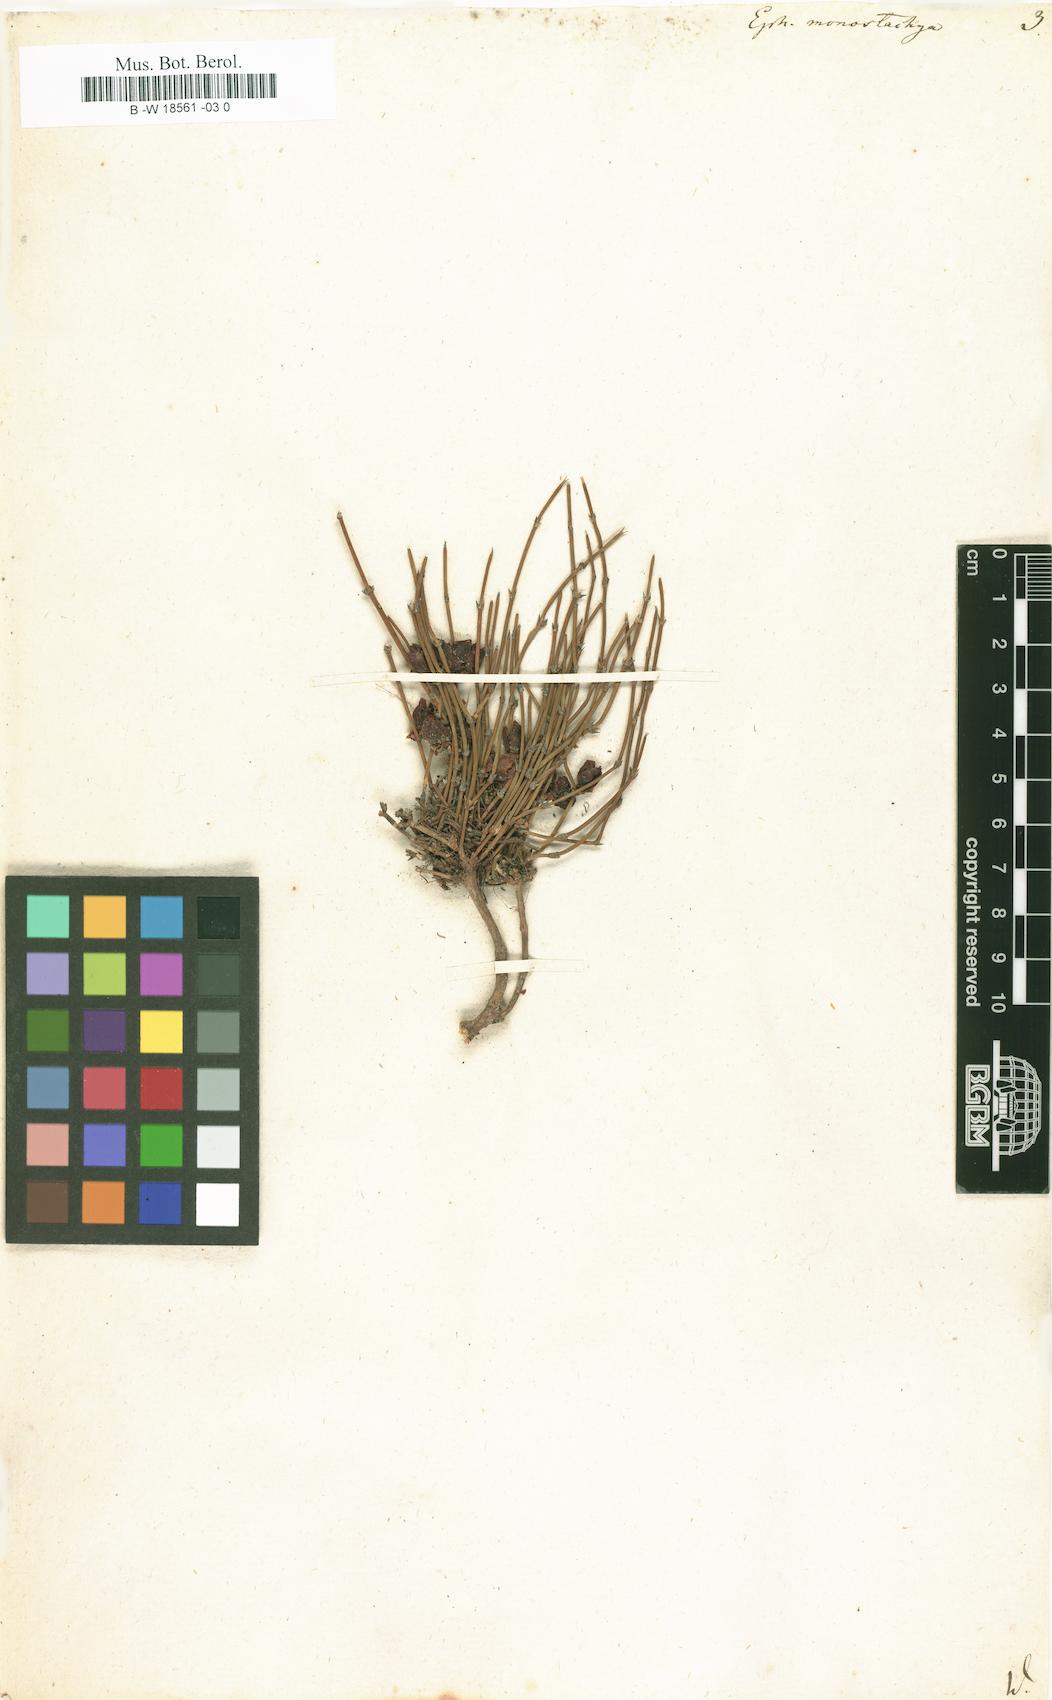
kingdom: Plantae
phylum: Tracheophyta
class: Gnetopsida
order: Ephedrales
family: Ephedraceae
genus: Ephedra
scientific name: Ephedra monostachya
